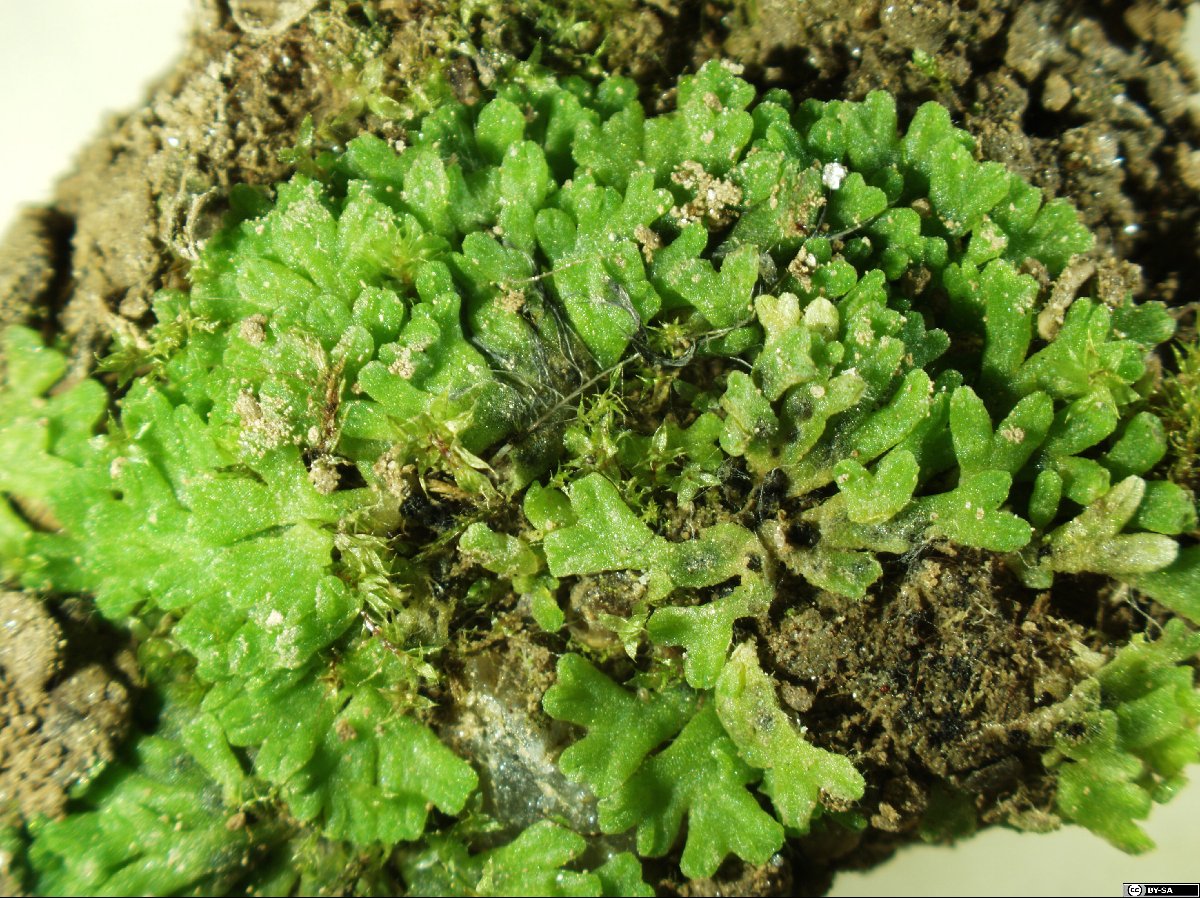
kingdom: Plantae
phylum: Marchantiophyta
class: Marchantiopsida
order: Marchantiales
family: Ricciaceae
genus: Riccia
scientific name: Riccia warnstorfii
